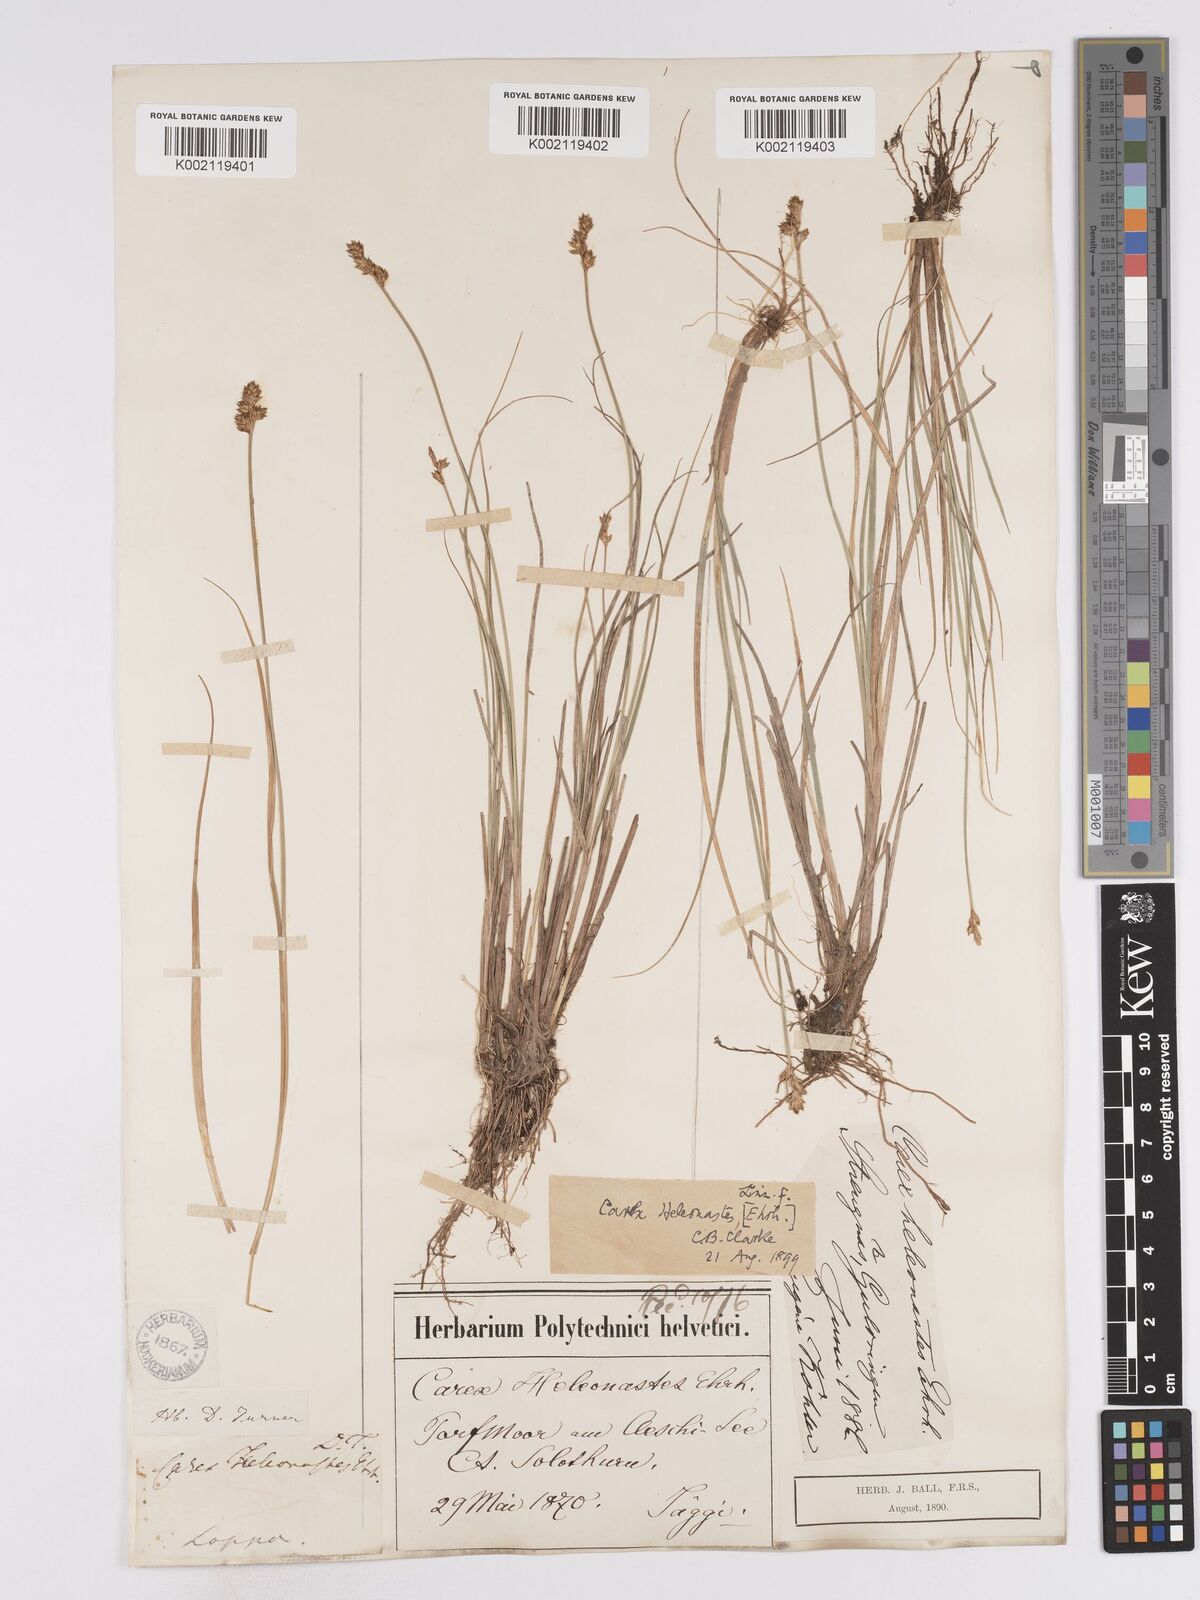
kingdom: Plantae
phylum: Tracheophyta
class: Liliopsida
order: Poales
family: Cyperaceae
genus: Carex
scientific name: Carex heleonastes
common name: Hudson bay sedge
